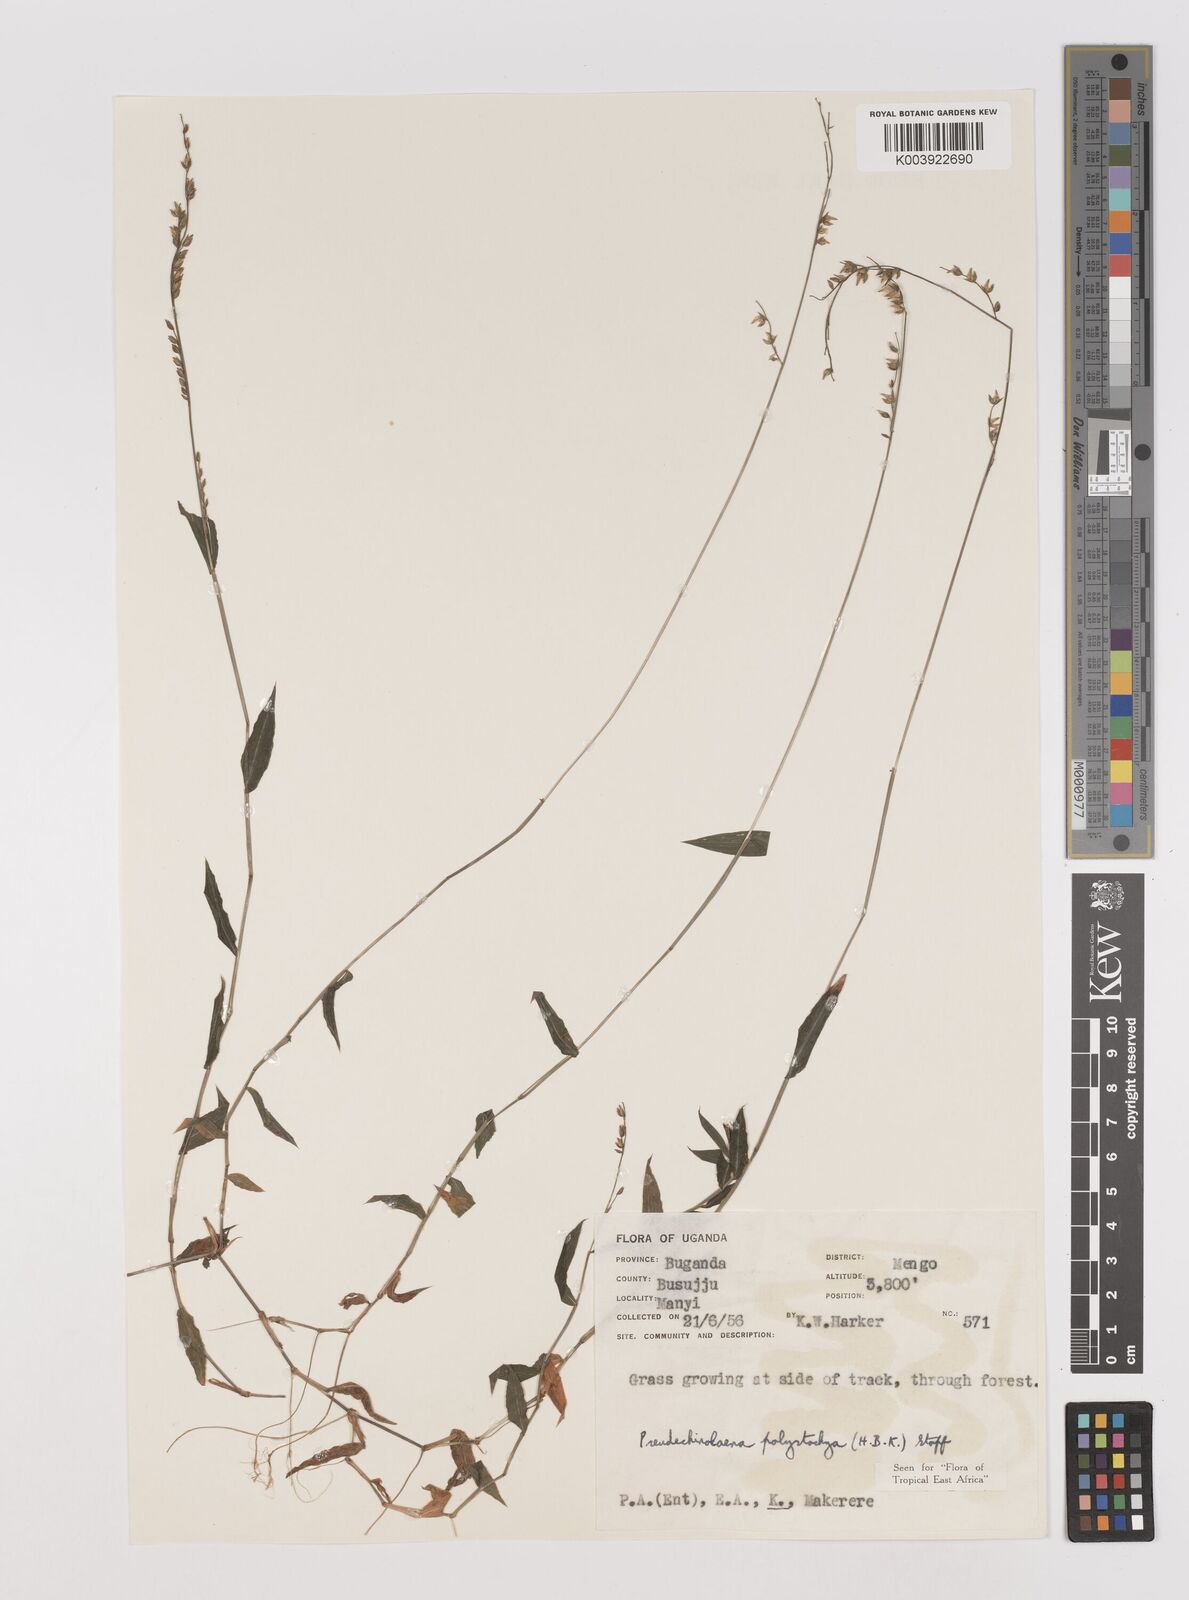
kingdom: Plantae
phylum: Tracheophyta
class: Liliopsida
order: Poales
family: Poaceae
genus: Pseudechinolaena
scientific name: Pseudechinolaena polystachya
